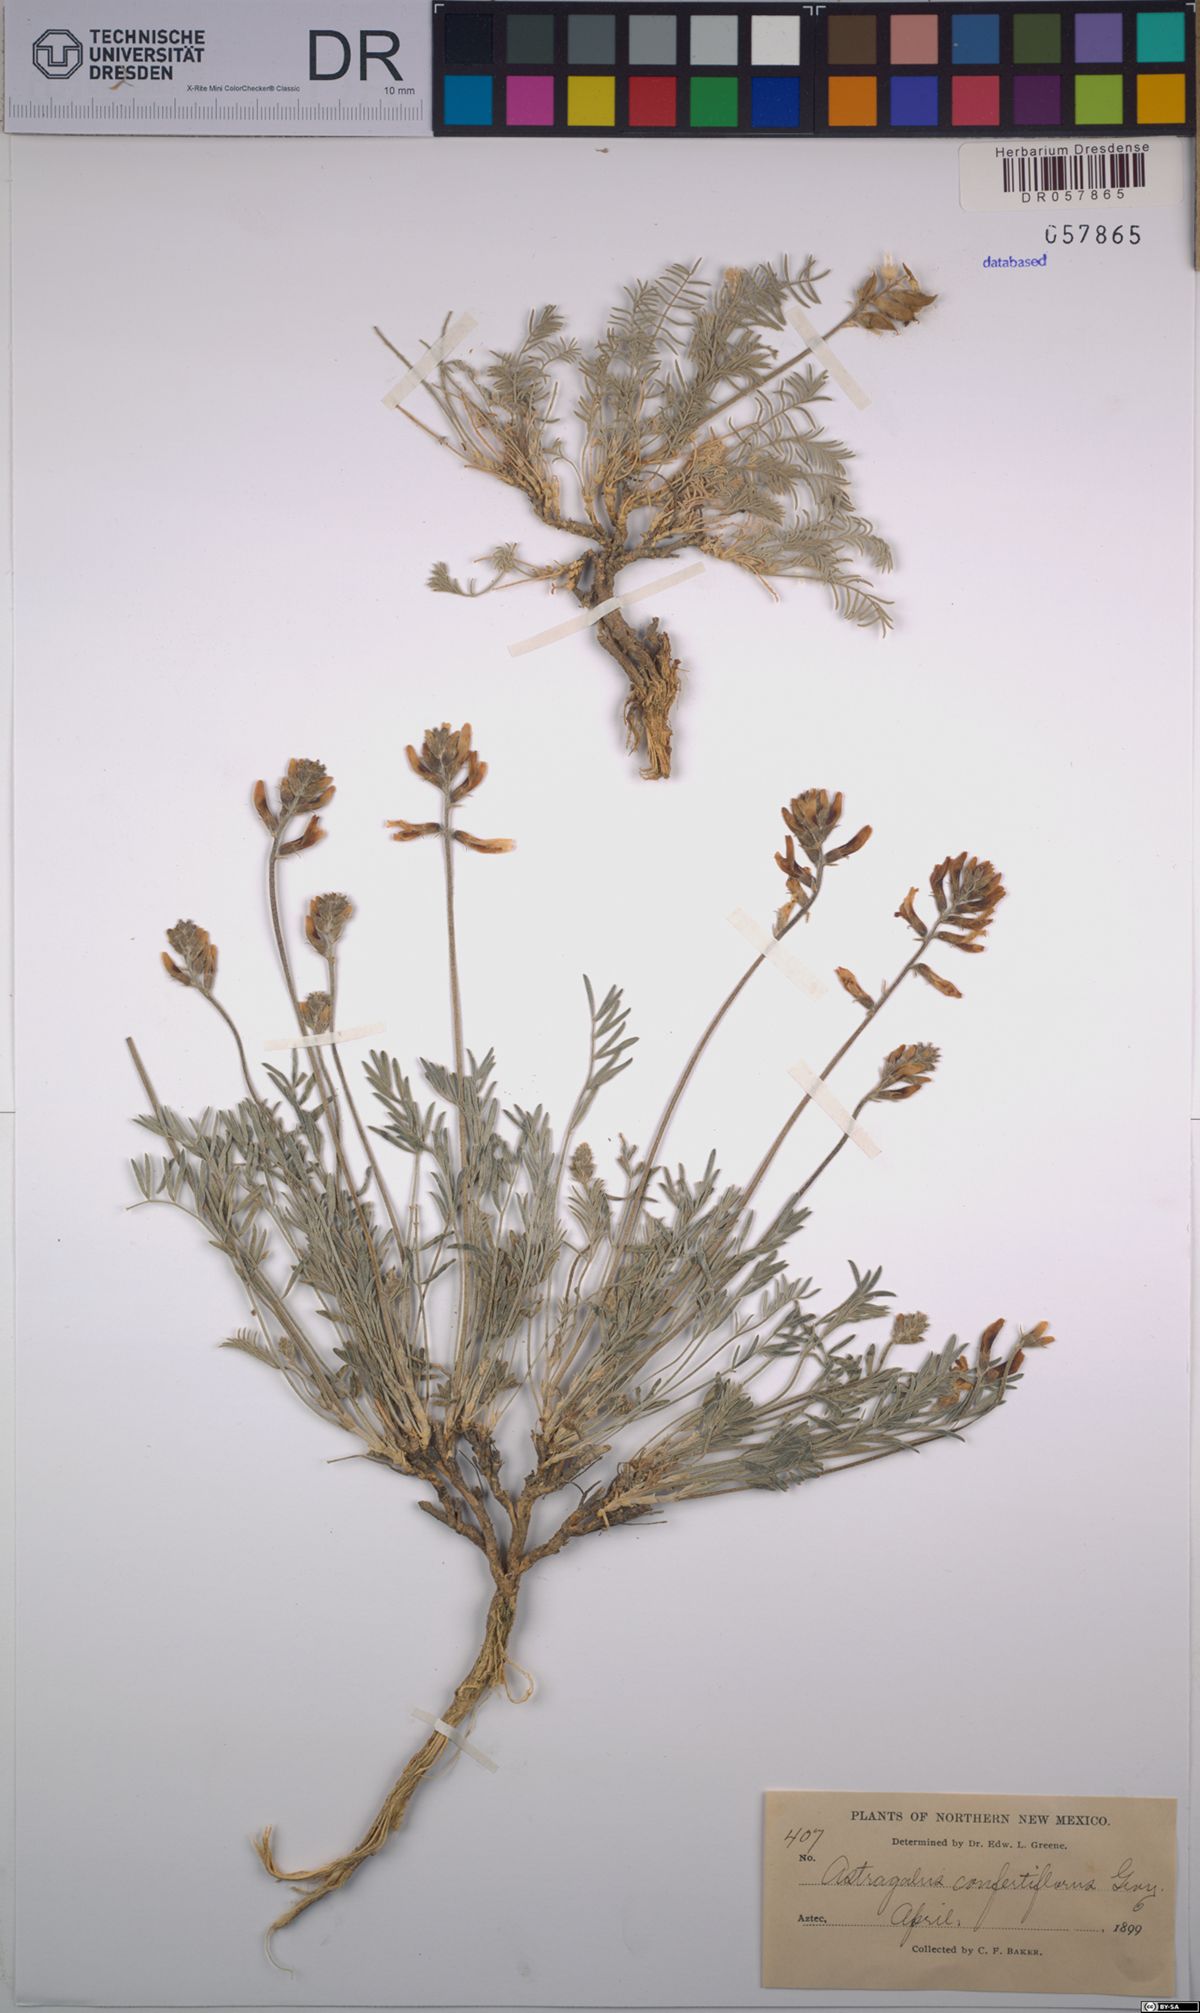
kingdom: Plantae
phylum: Tracheophyta
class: Magnoliopsida
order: Fabales
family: Fabaceae
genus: Astragalus
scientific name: Astragalus flavus
